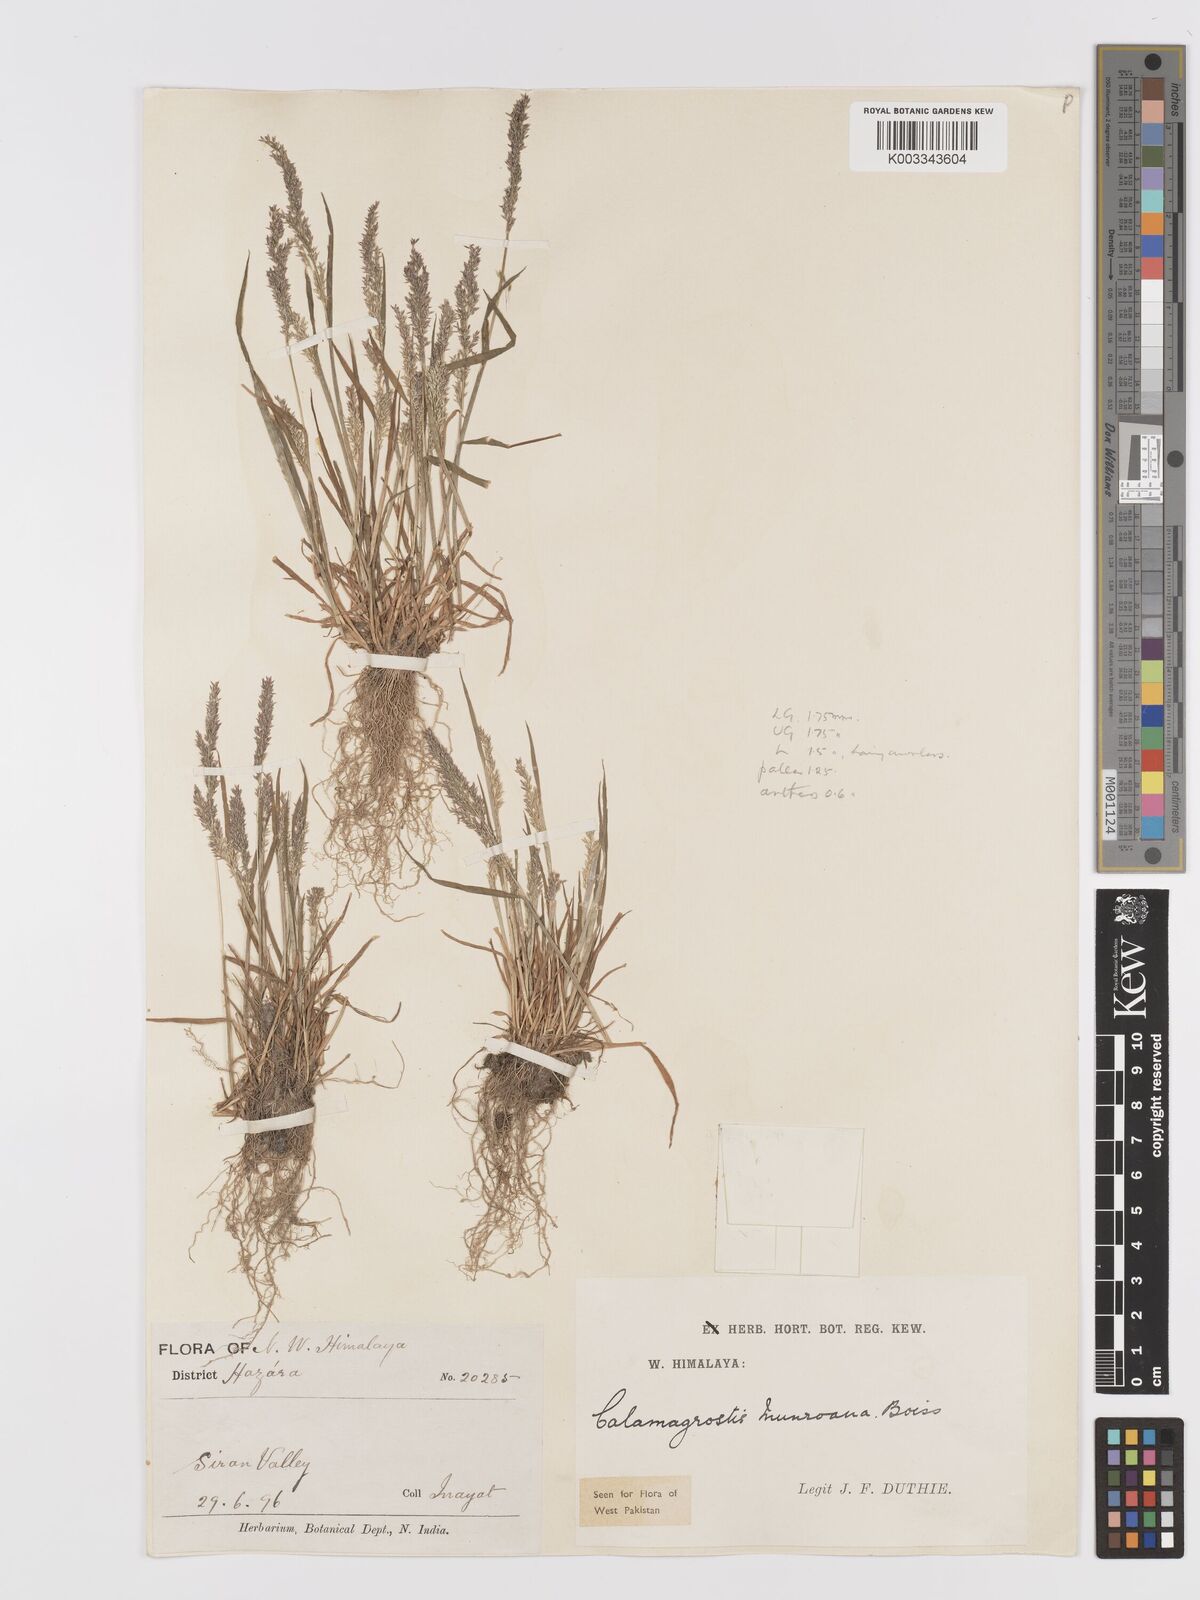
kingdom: Plantae
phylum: Tracheophyta
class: Liliopsida
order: Poales
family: Poaceae
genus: Agrostis
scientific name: Agrostis munroana
